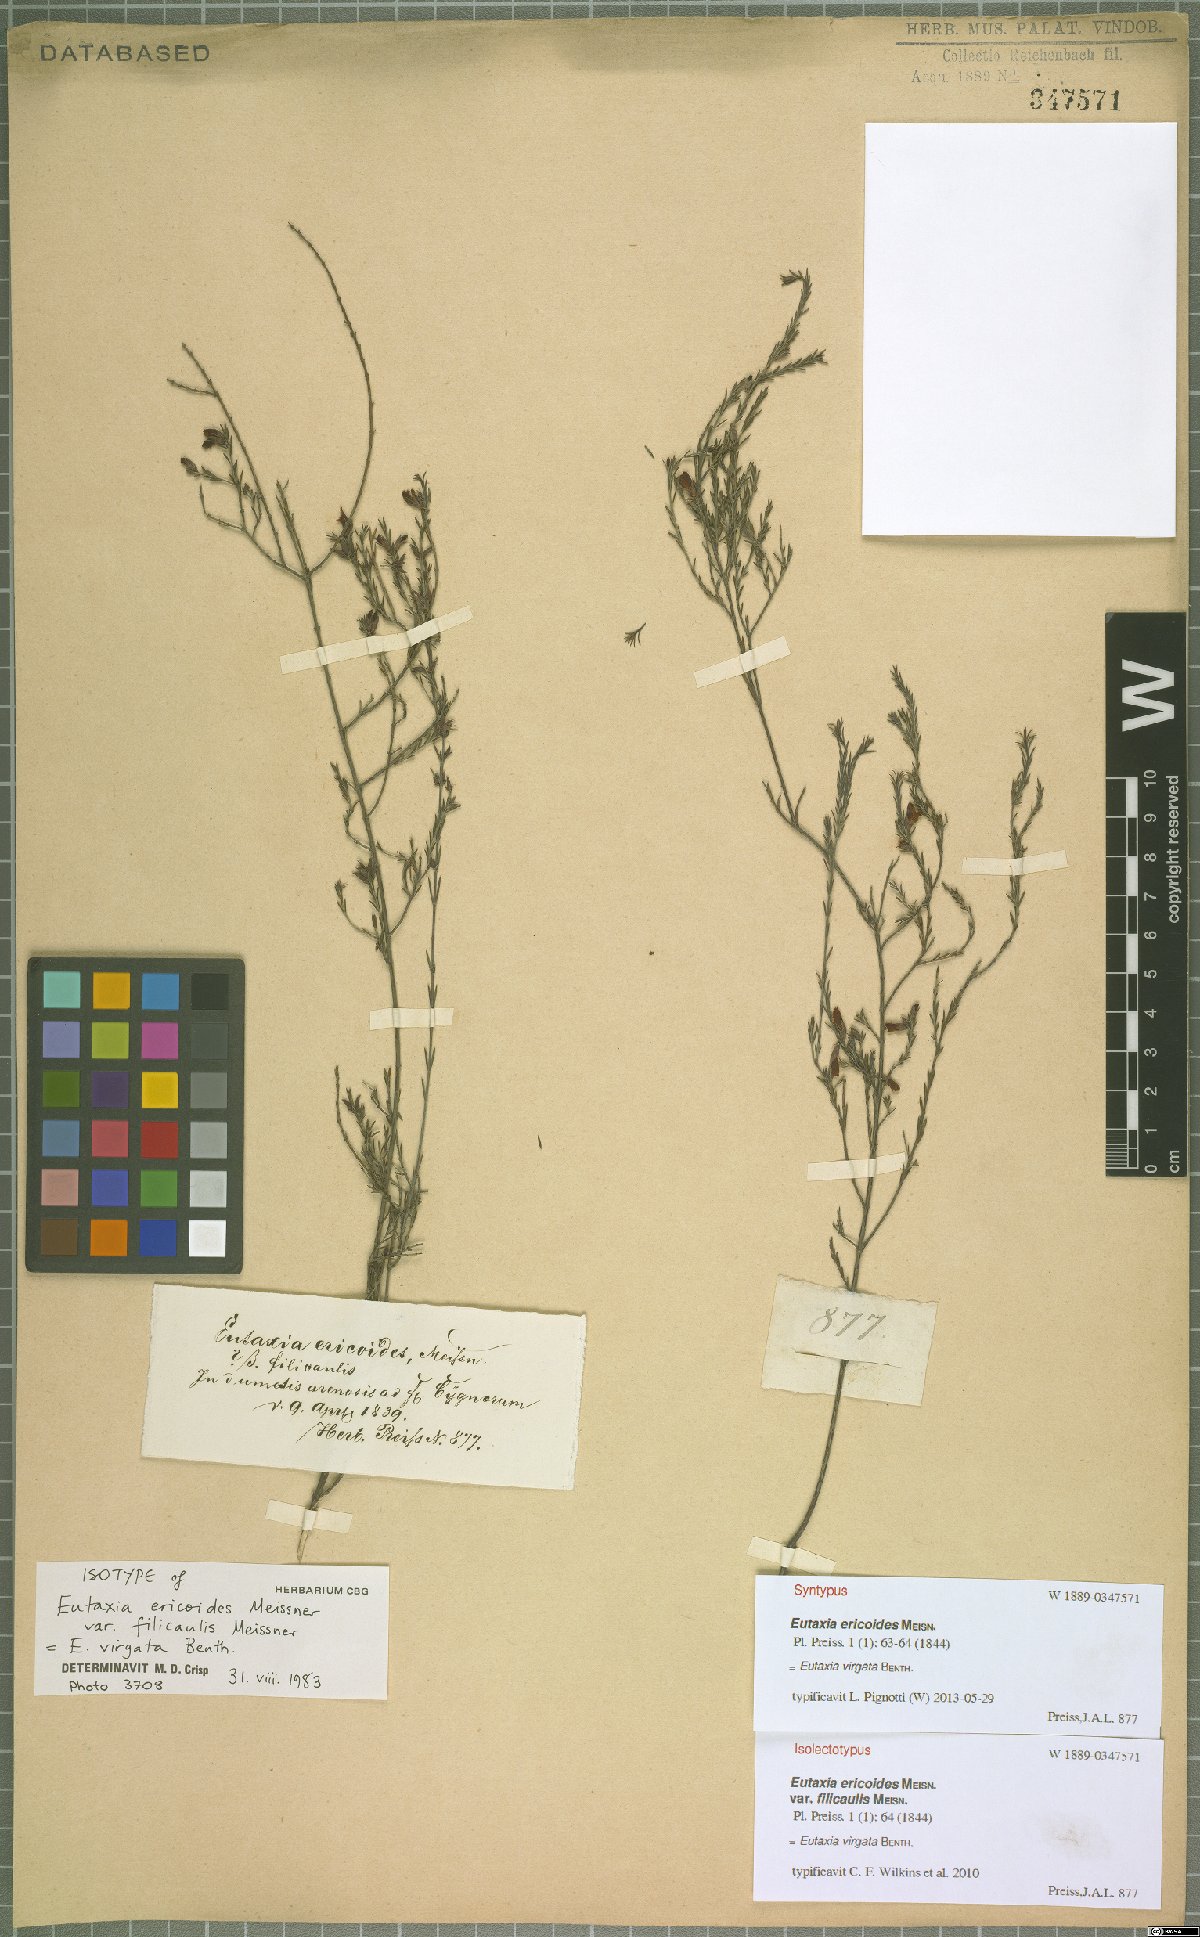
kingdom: Plantae
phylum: Tracheophyta
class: Magnoliopsida
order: Fabales
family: Fabaceae
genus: Eutaxia
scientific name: Eutaxia virgata
